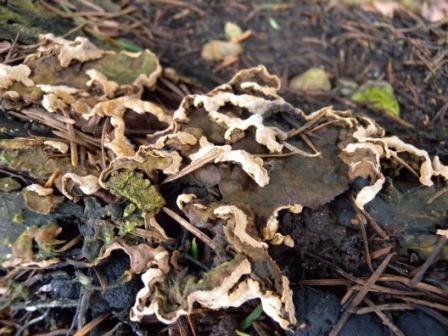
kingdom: Fungi
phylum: Basidiomycota
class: Agaricomycetes
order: Russulales
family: Stereaceae
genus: Stereum
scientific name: Stereum rugosum
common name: rynket lædersvamp
